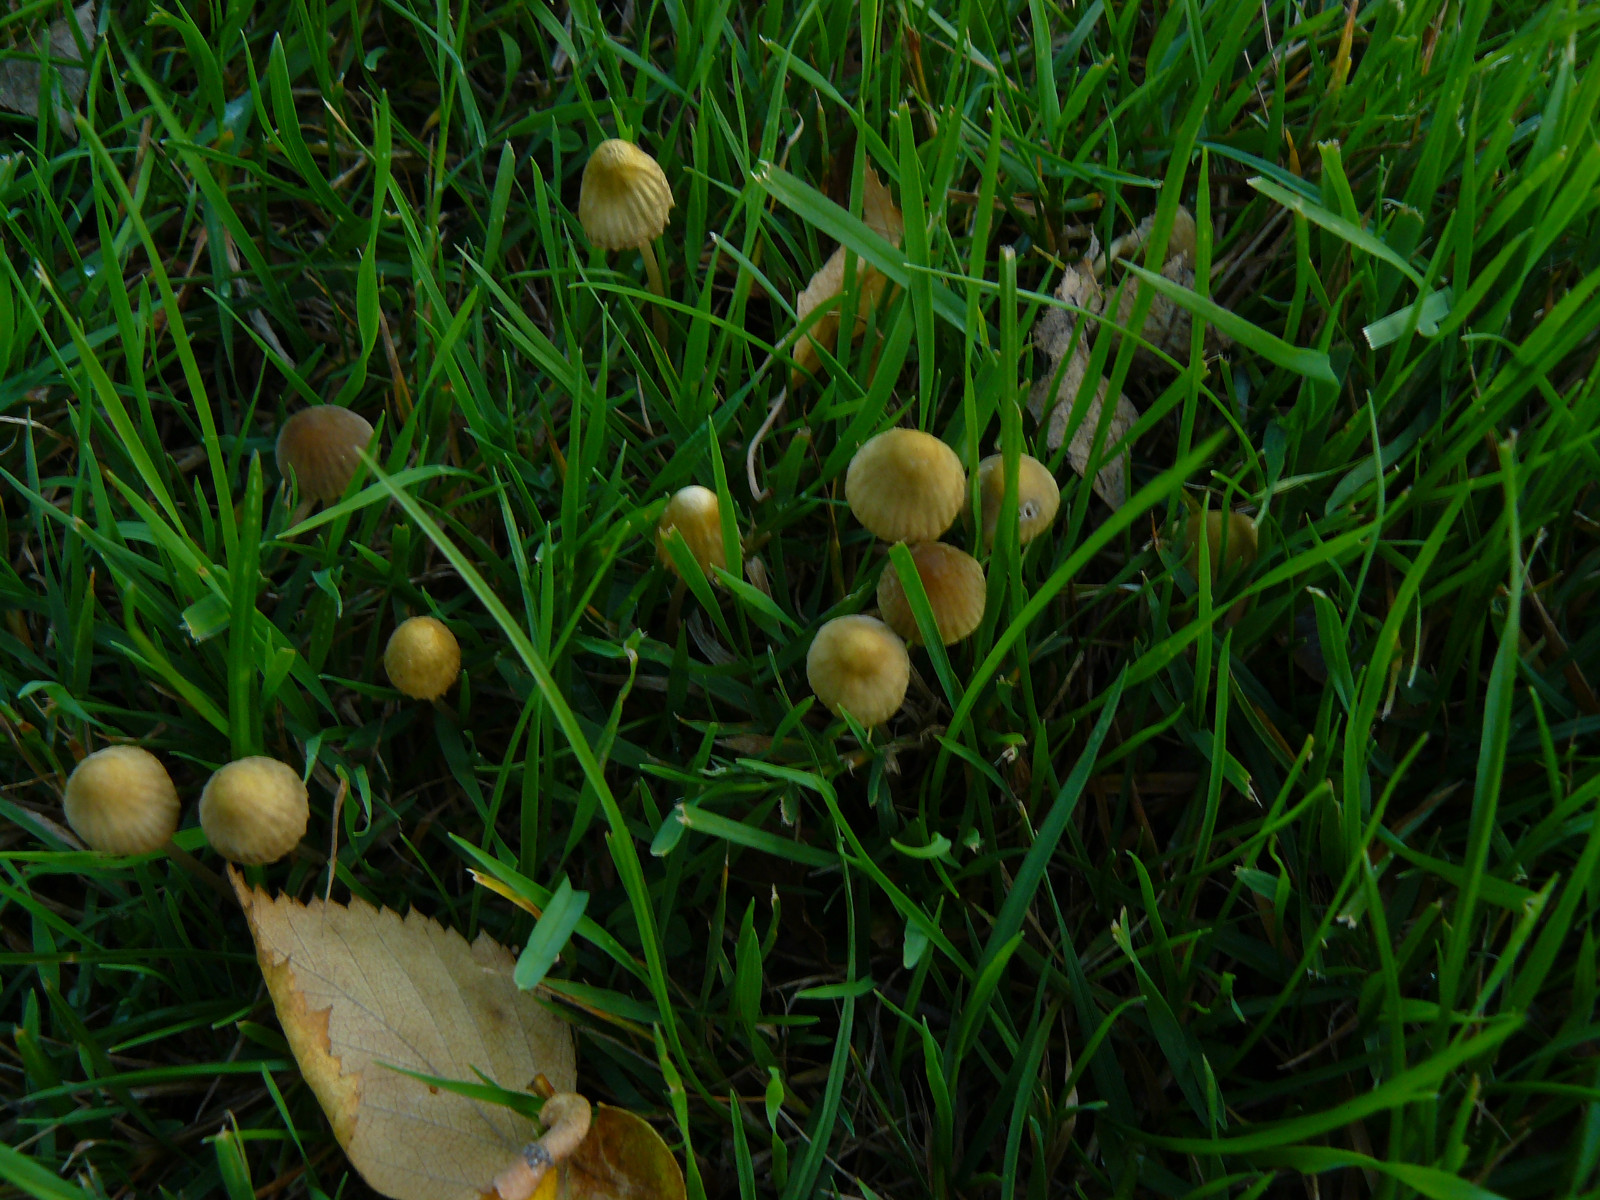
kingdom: Fungi
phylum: Basidiomycota
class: Agaricomycetes
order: Agaricales
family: Mycenaceae
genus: Mycena
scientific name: Mycena olivaceomarginata
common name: brunægget huesvamp
